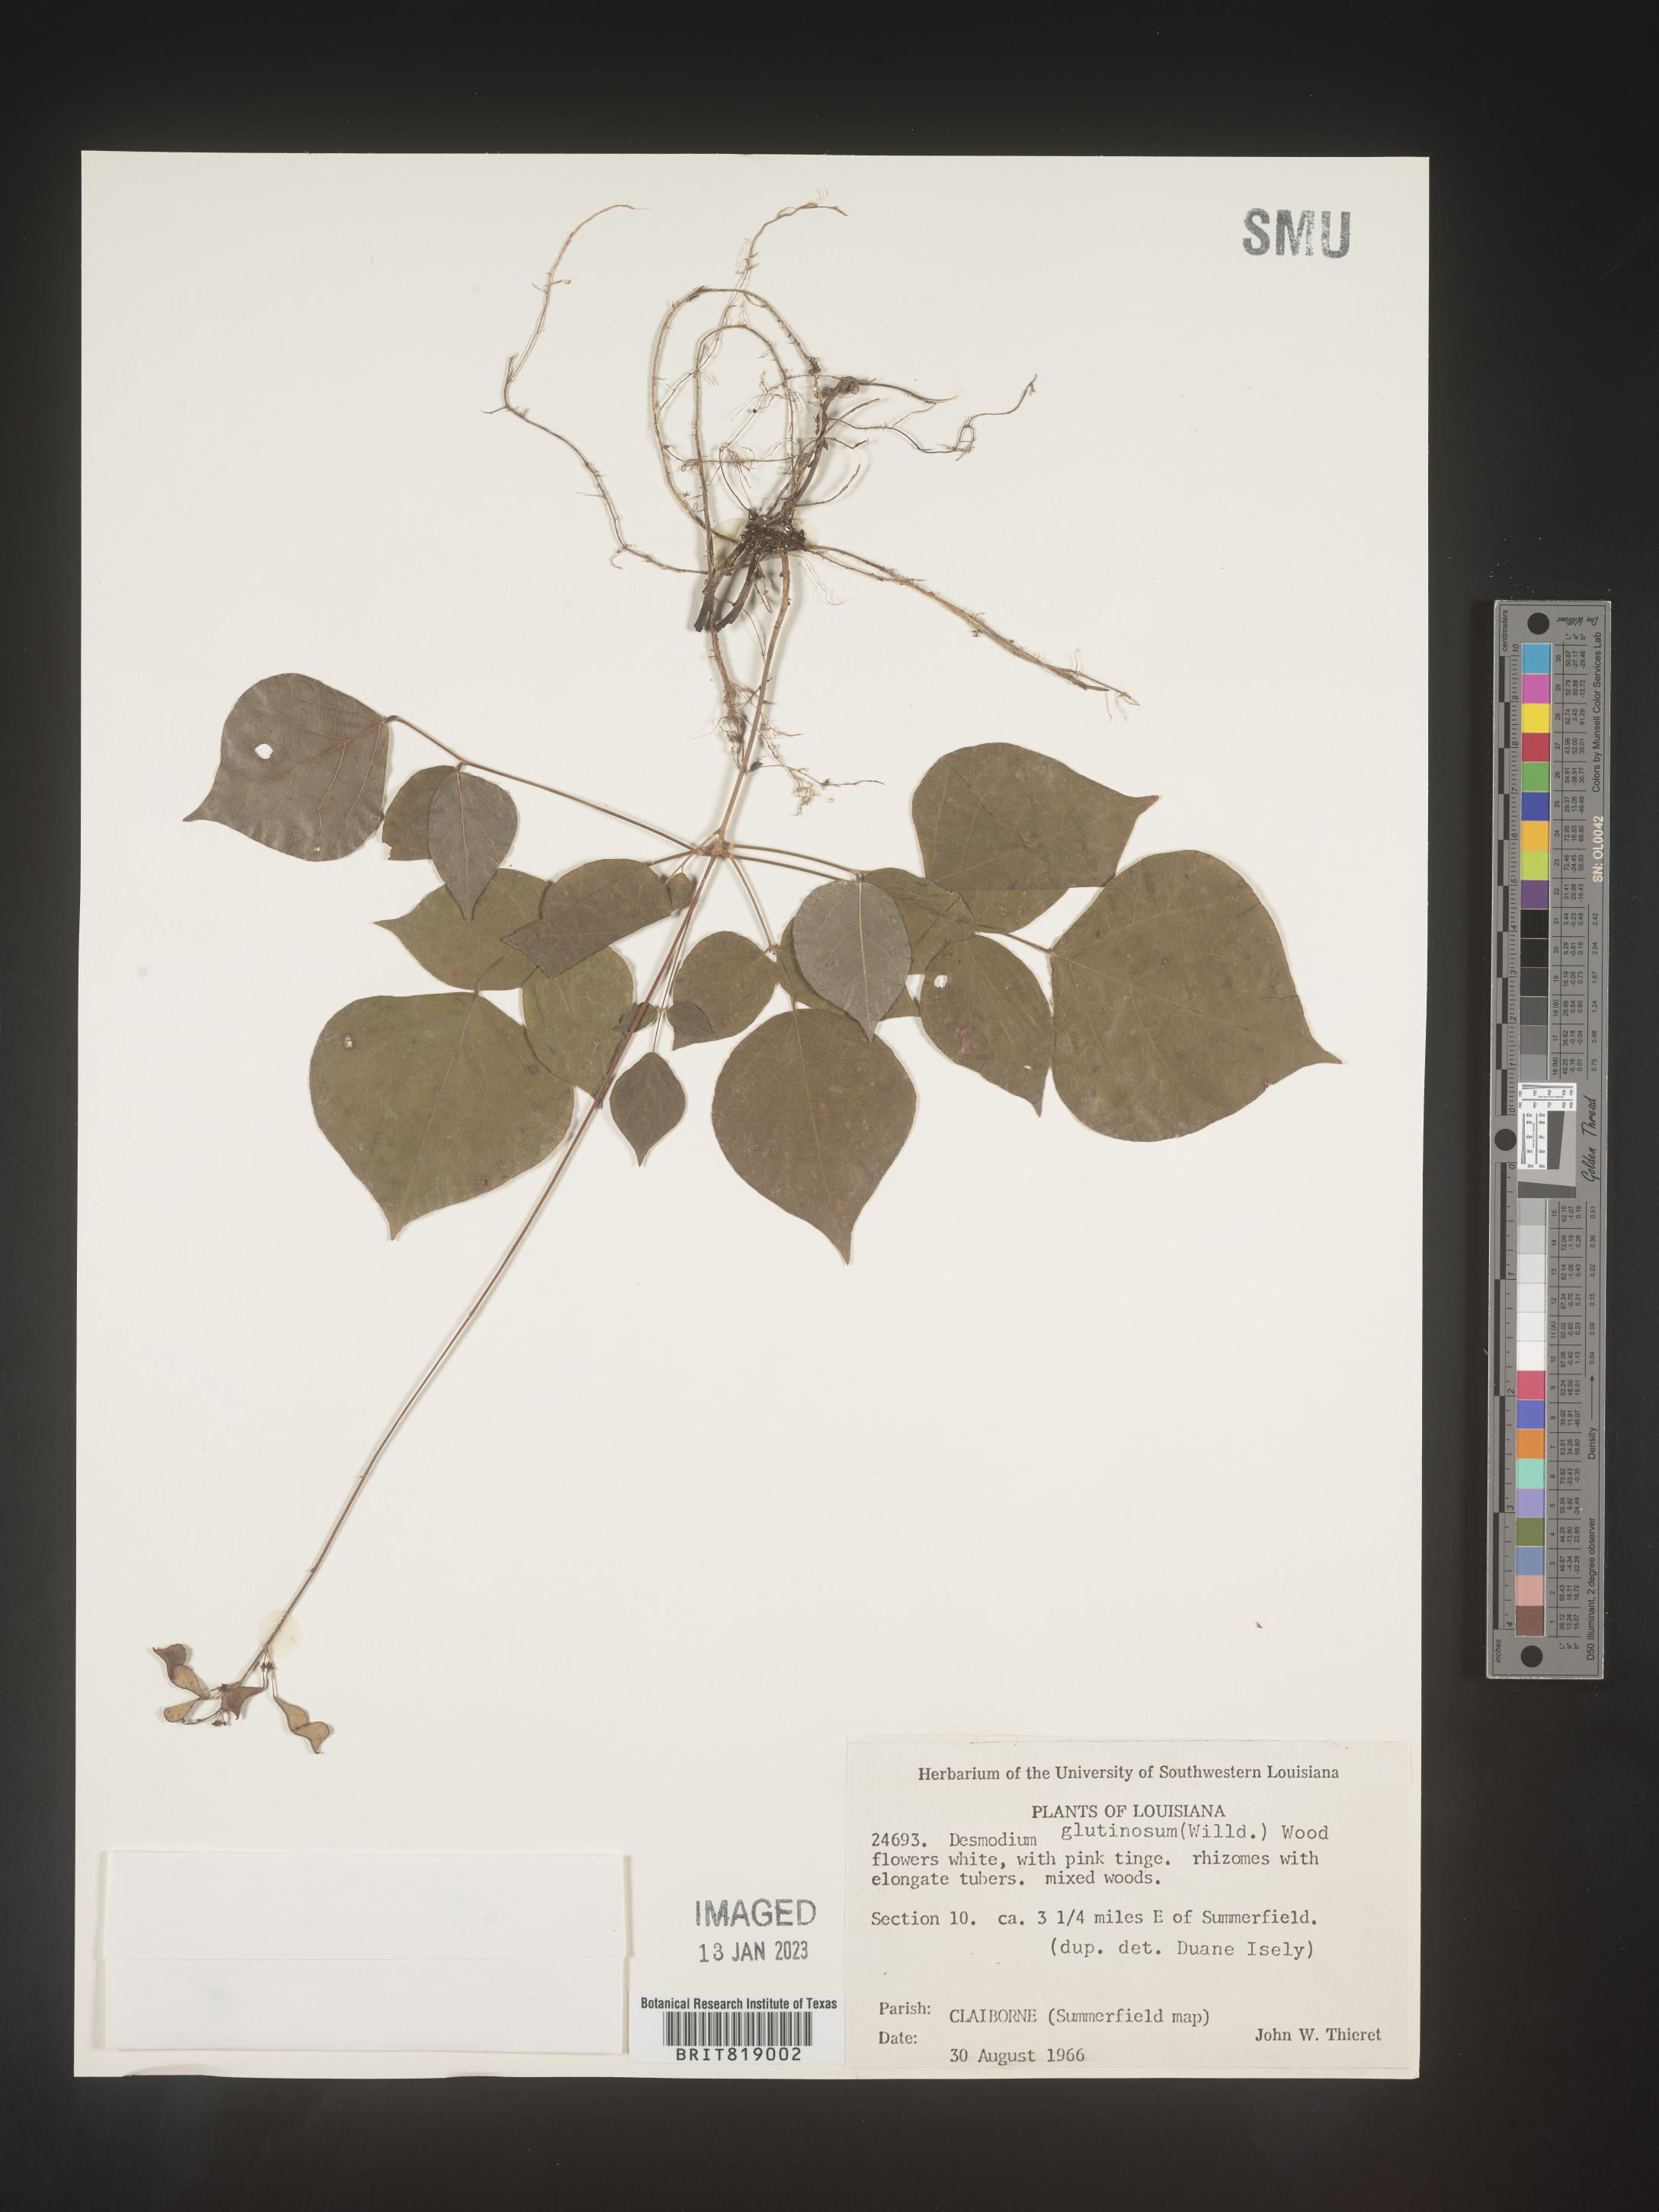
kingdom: Plantae
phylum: Tracheophyta
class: Magnoliopsida
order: Fabales
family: Fabaceae
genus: Hylodesmum
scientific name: Hylodesmum glutinosum
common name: Clustered-leaved tick-trefoil
